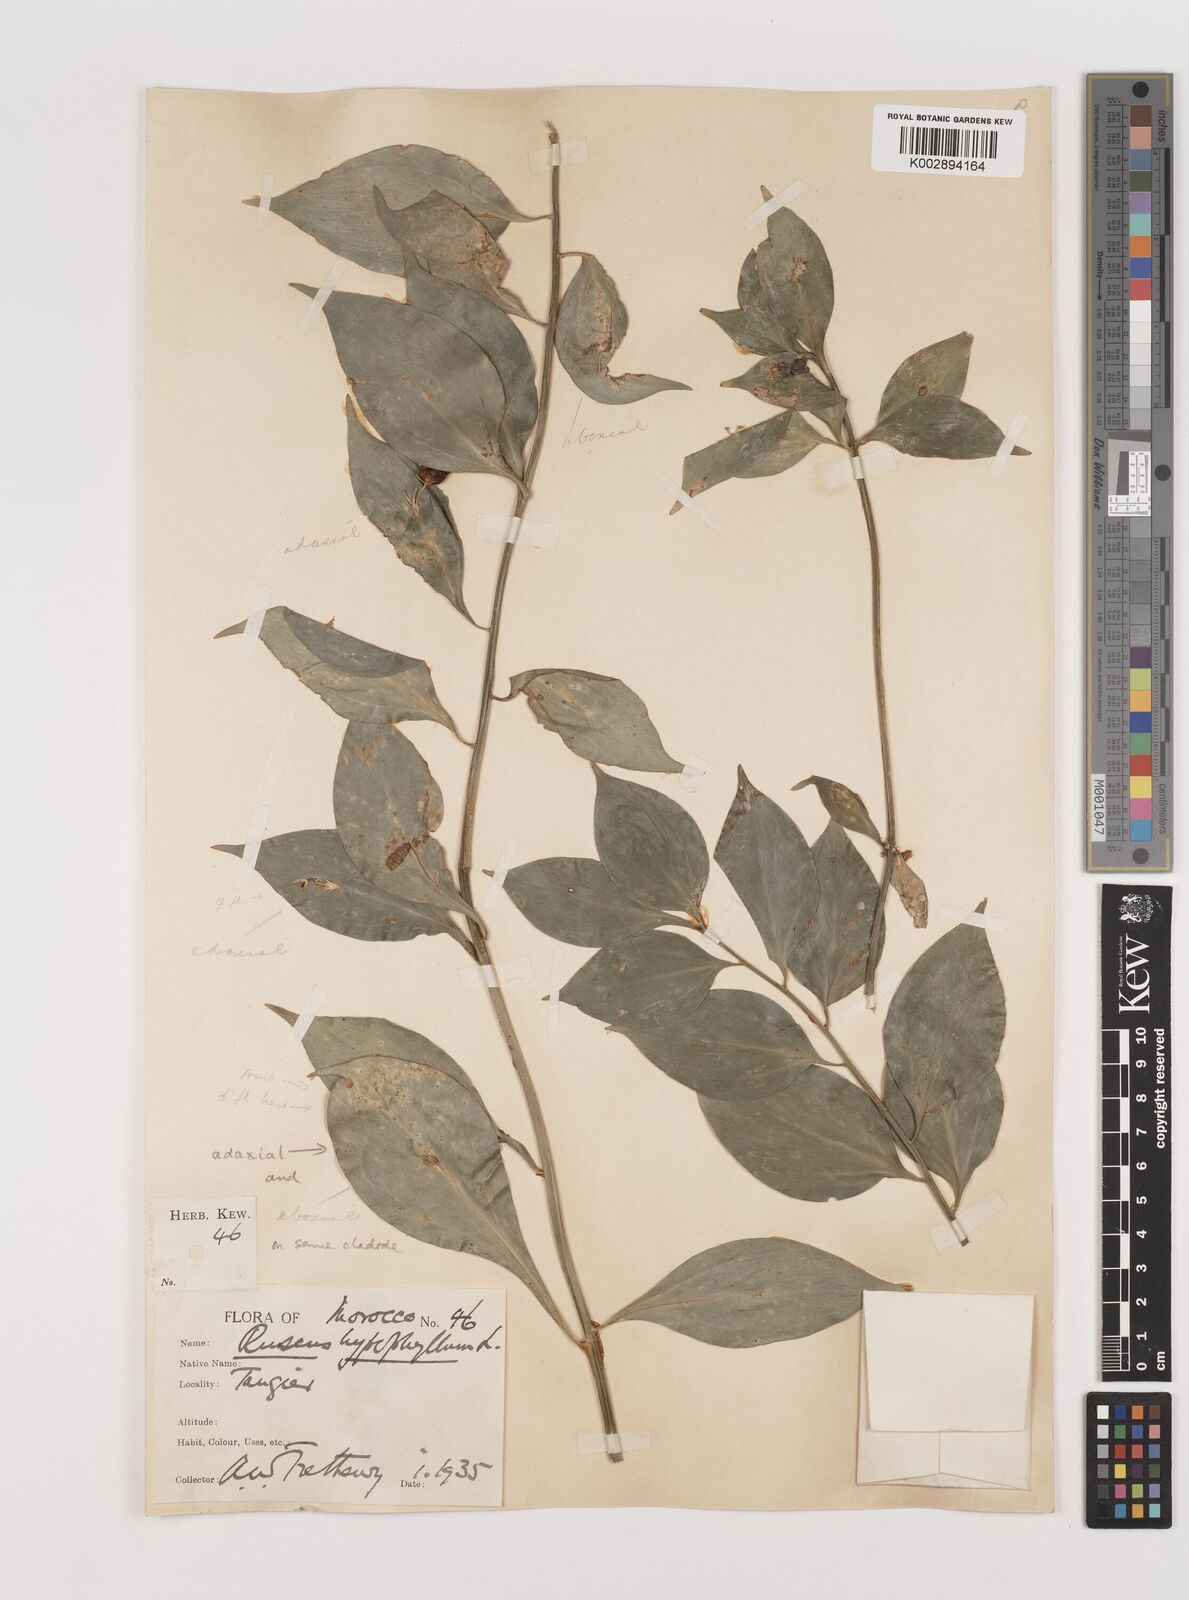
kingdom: Plantae
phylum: Tracheophyta
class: Liliopsida
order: Asparagales
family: Asparagaceae
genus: Ruscus
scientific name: Ruscus hypophyllum
